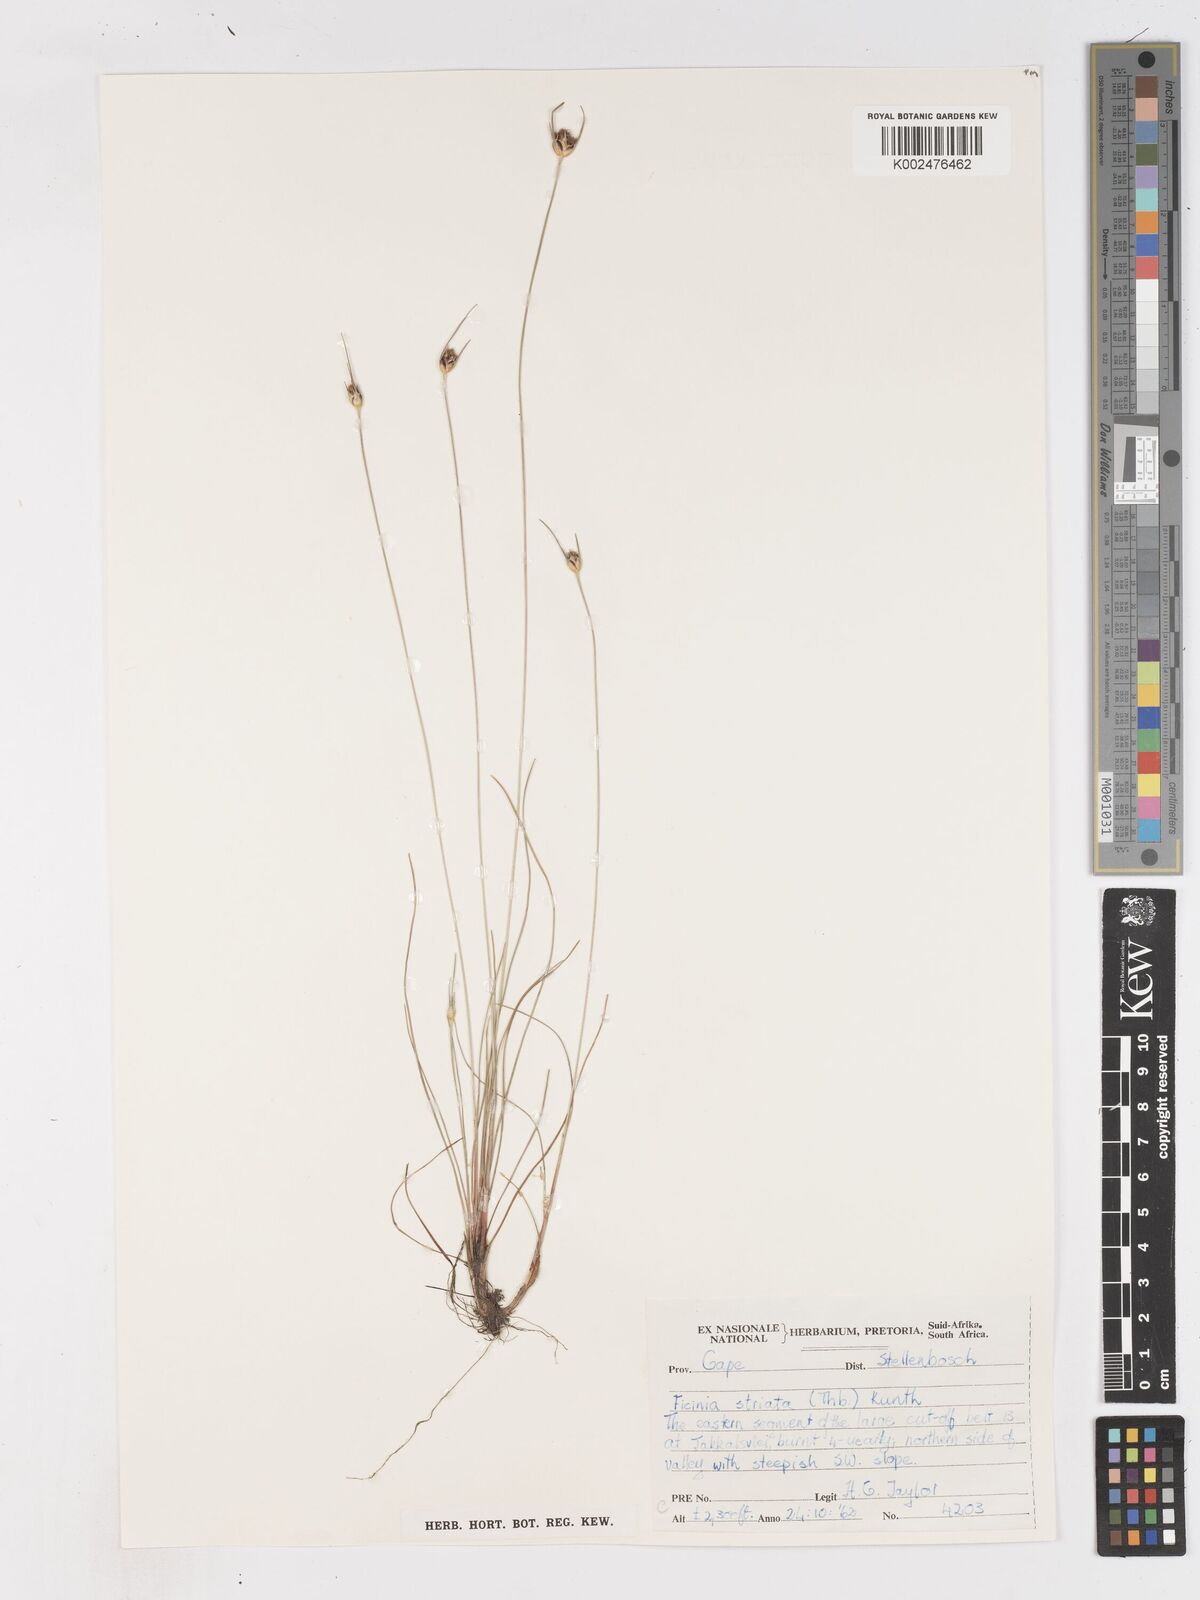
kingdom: Plantae
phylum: Tracheophyta
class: Liliopsida
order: Poales
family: Cyperaceae
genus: Ficinia
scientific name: Ficinia indica
